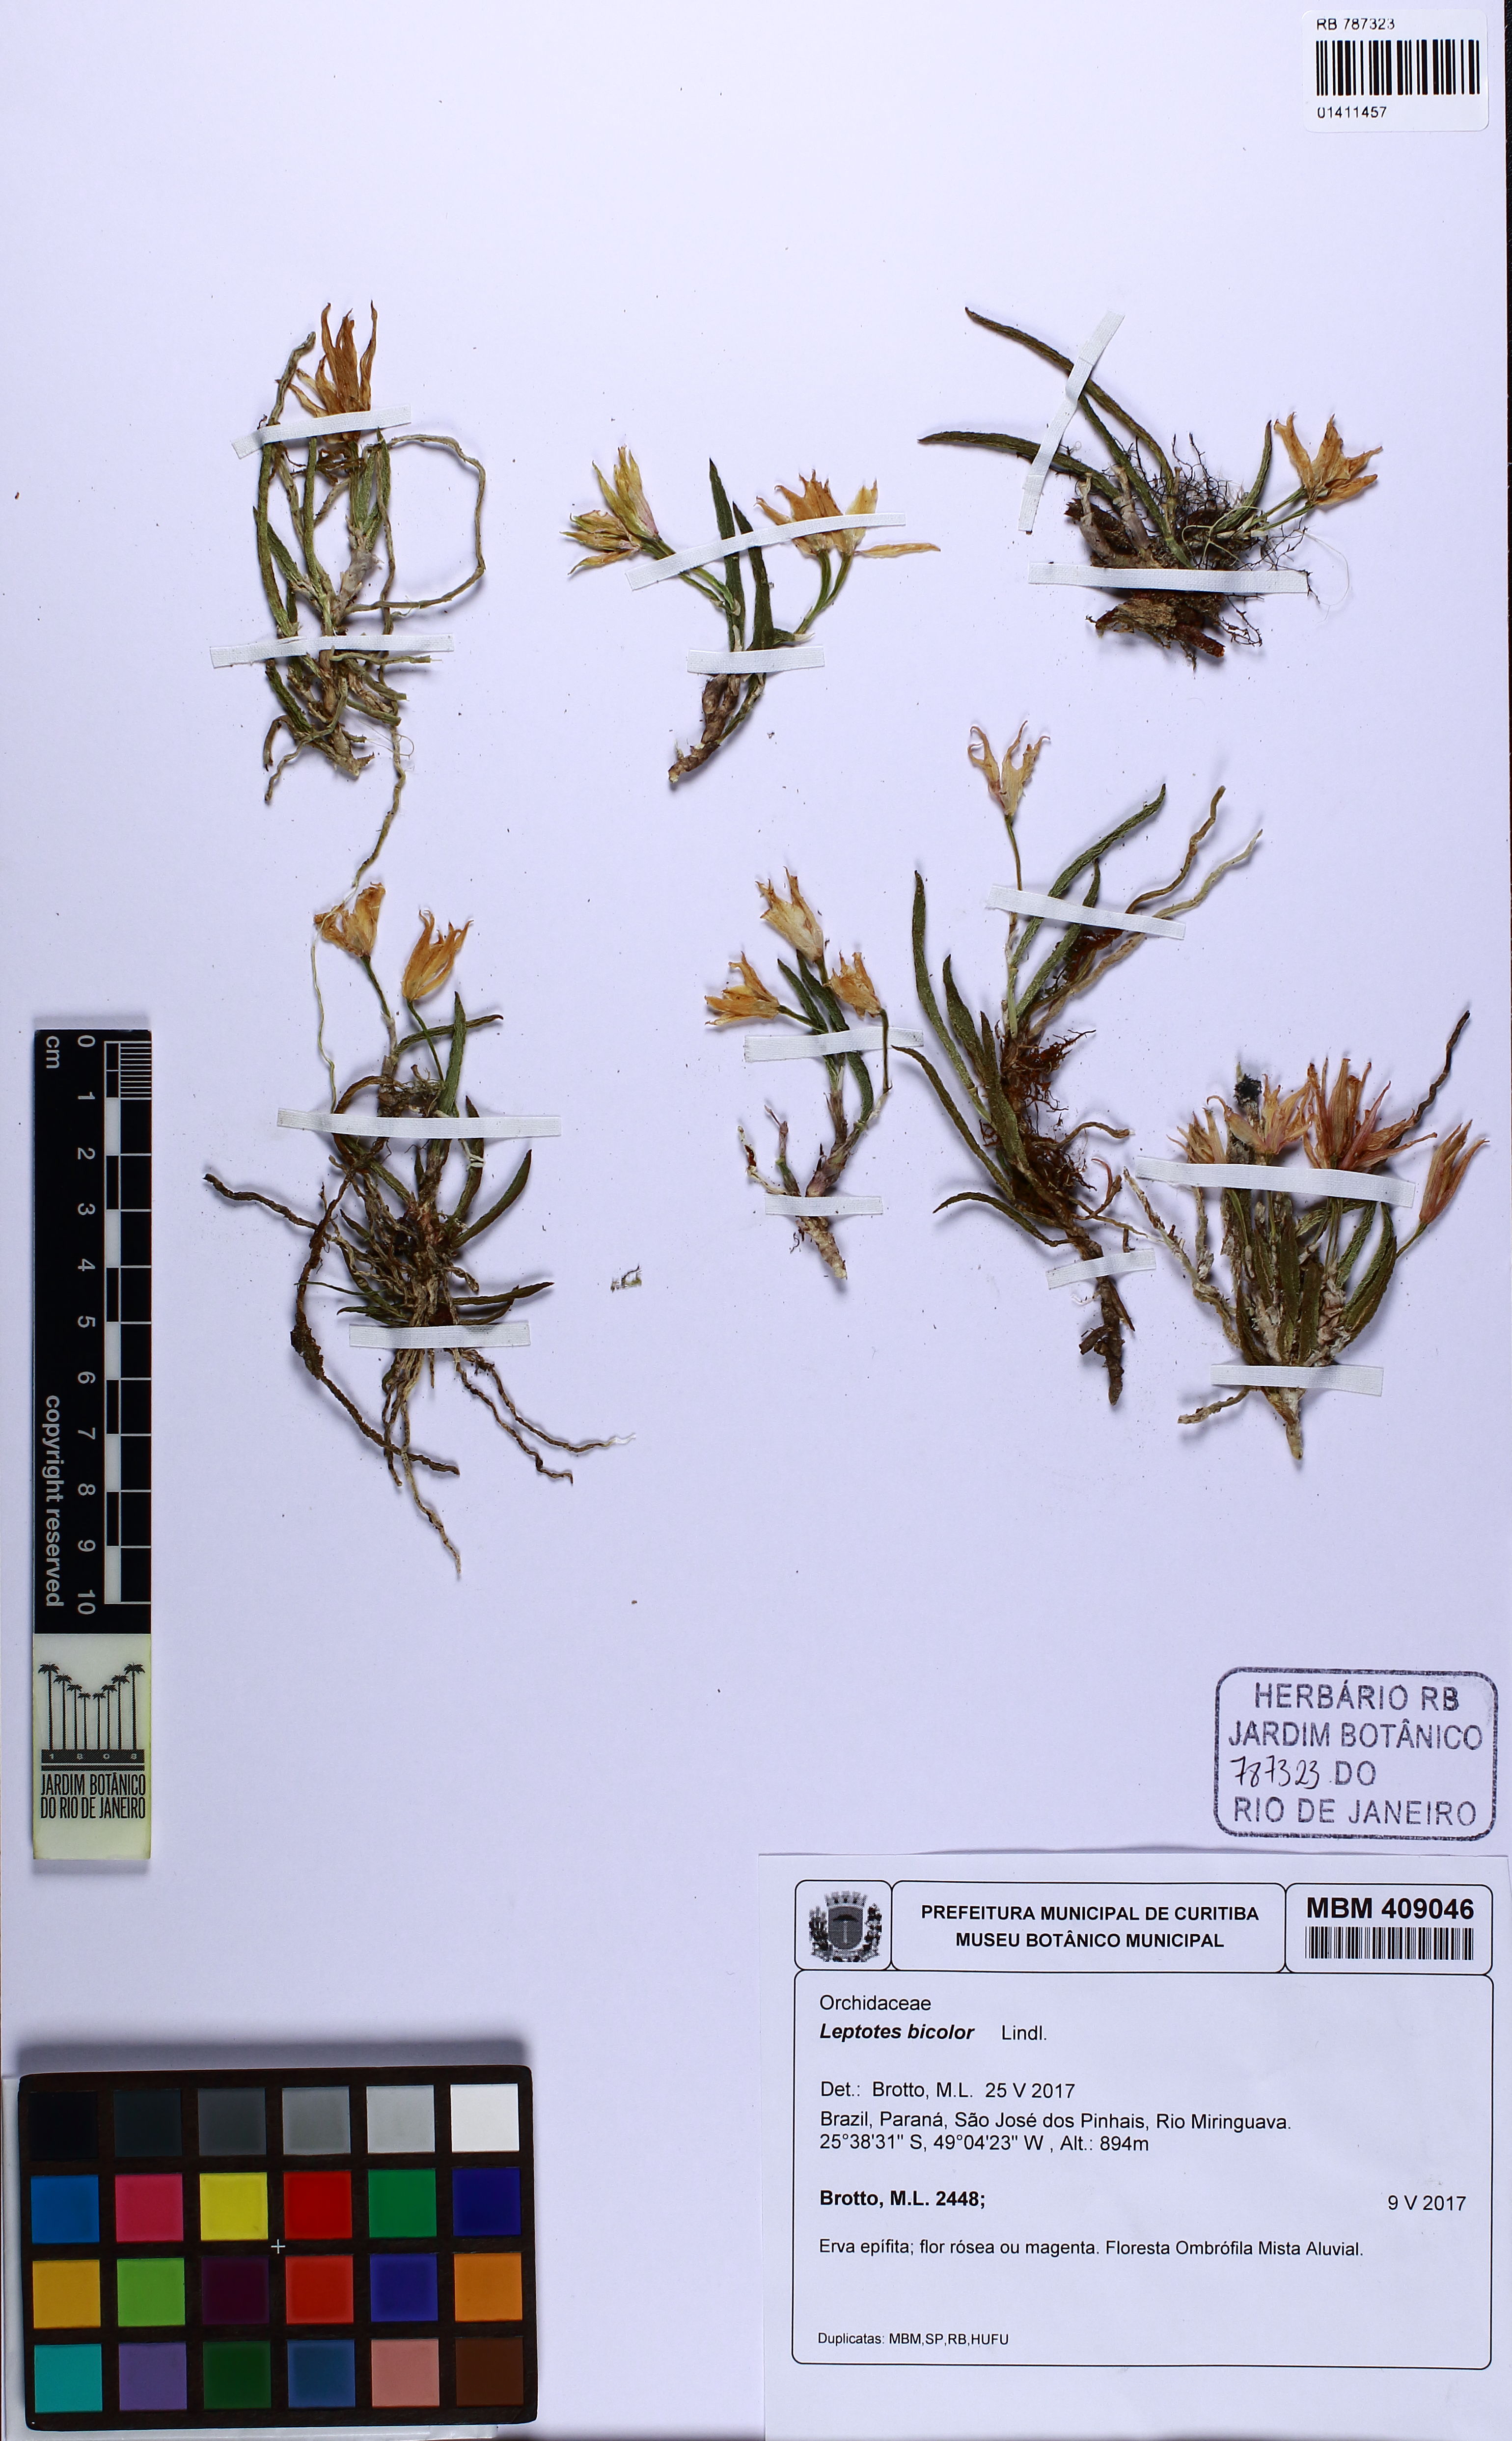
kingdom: Plantae
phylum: Tracheophyta
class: Liliopsida
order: Asparagales
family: Orchidaceae
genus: Leptotes
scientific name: Leptotes bicolor
